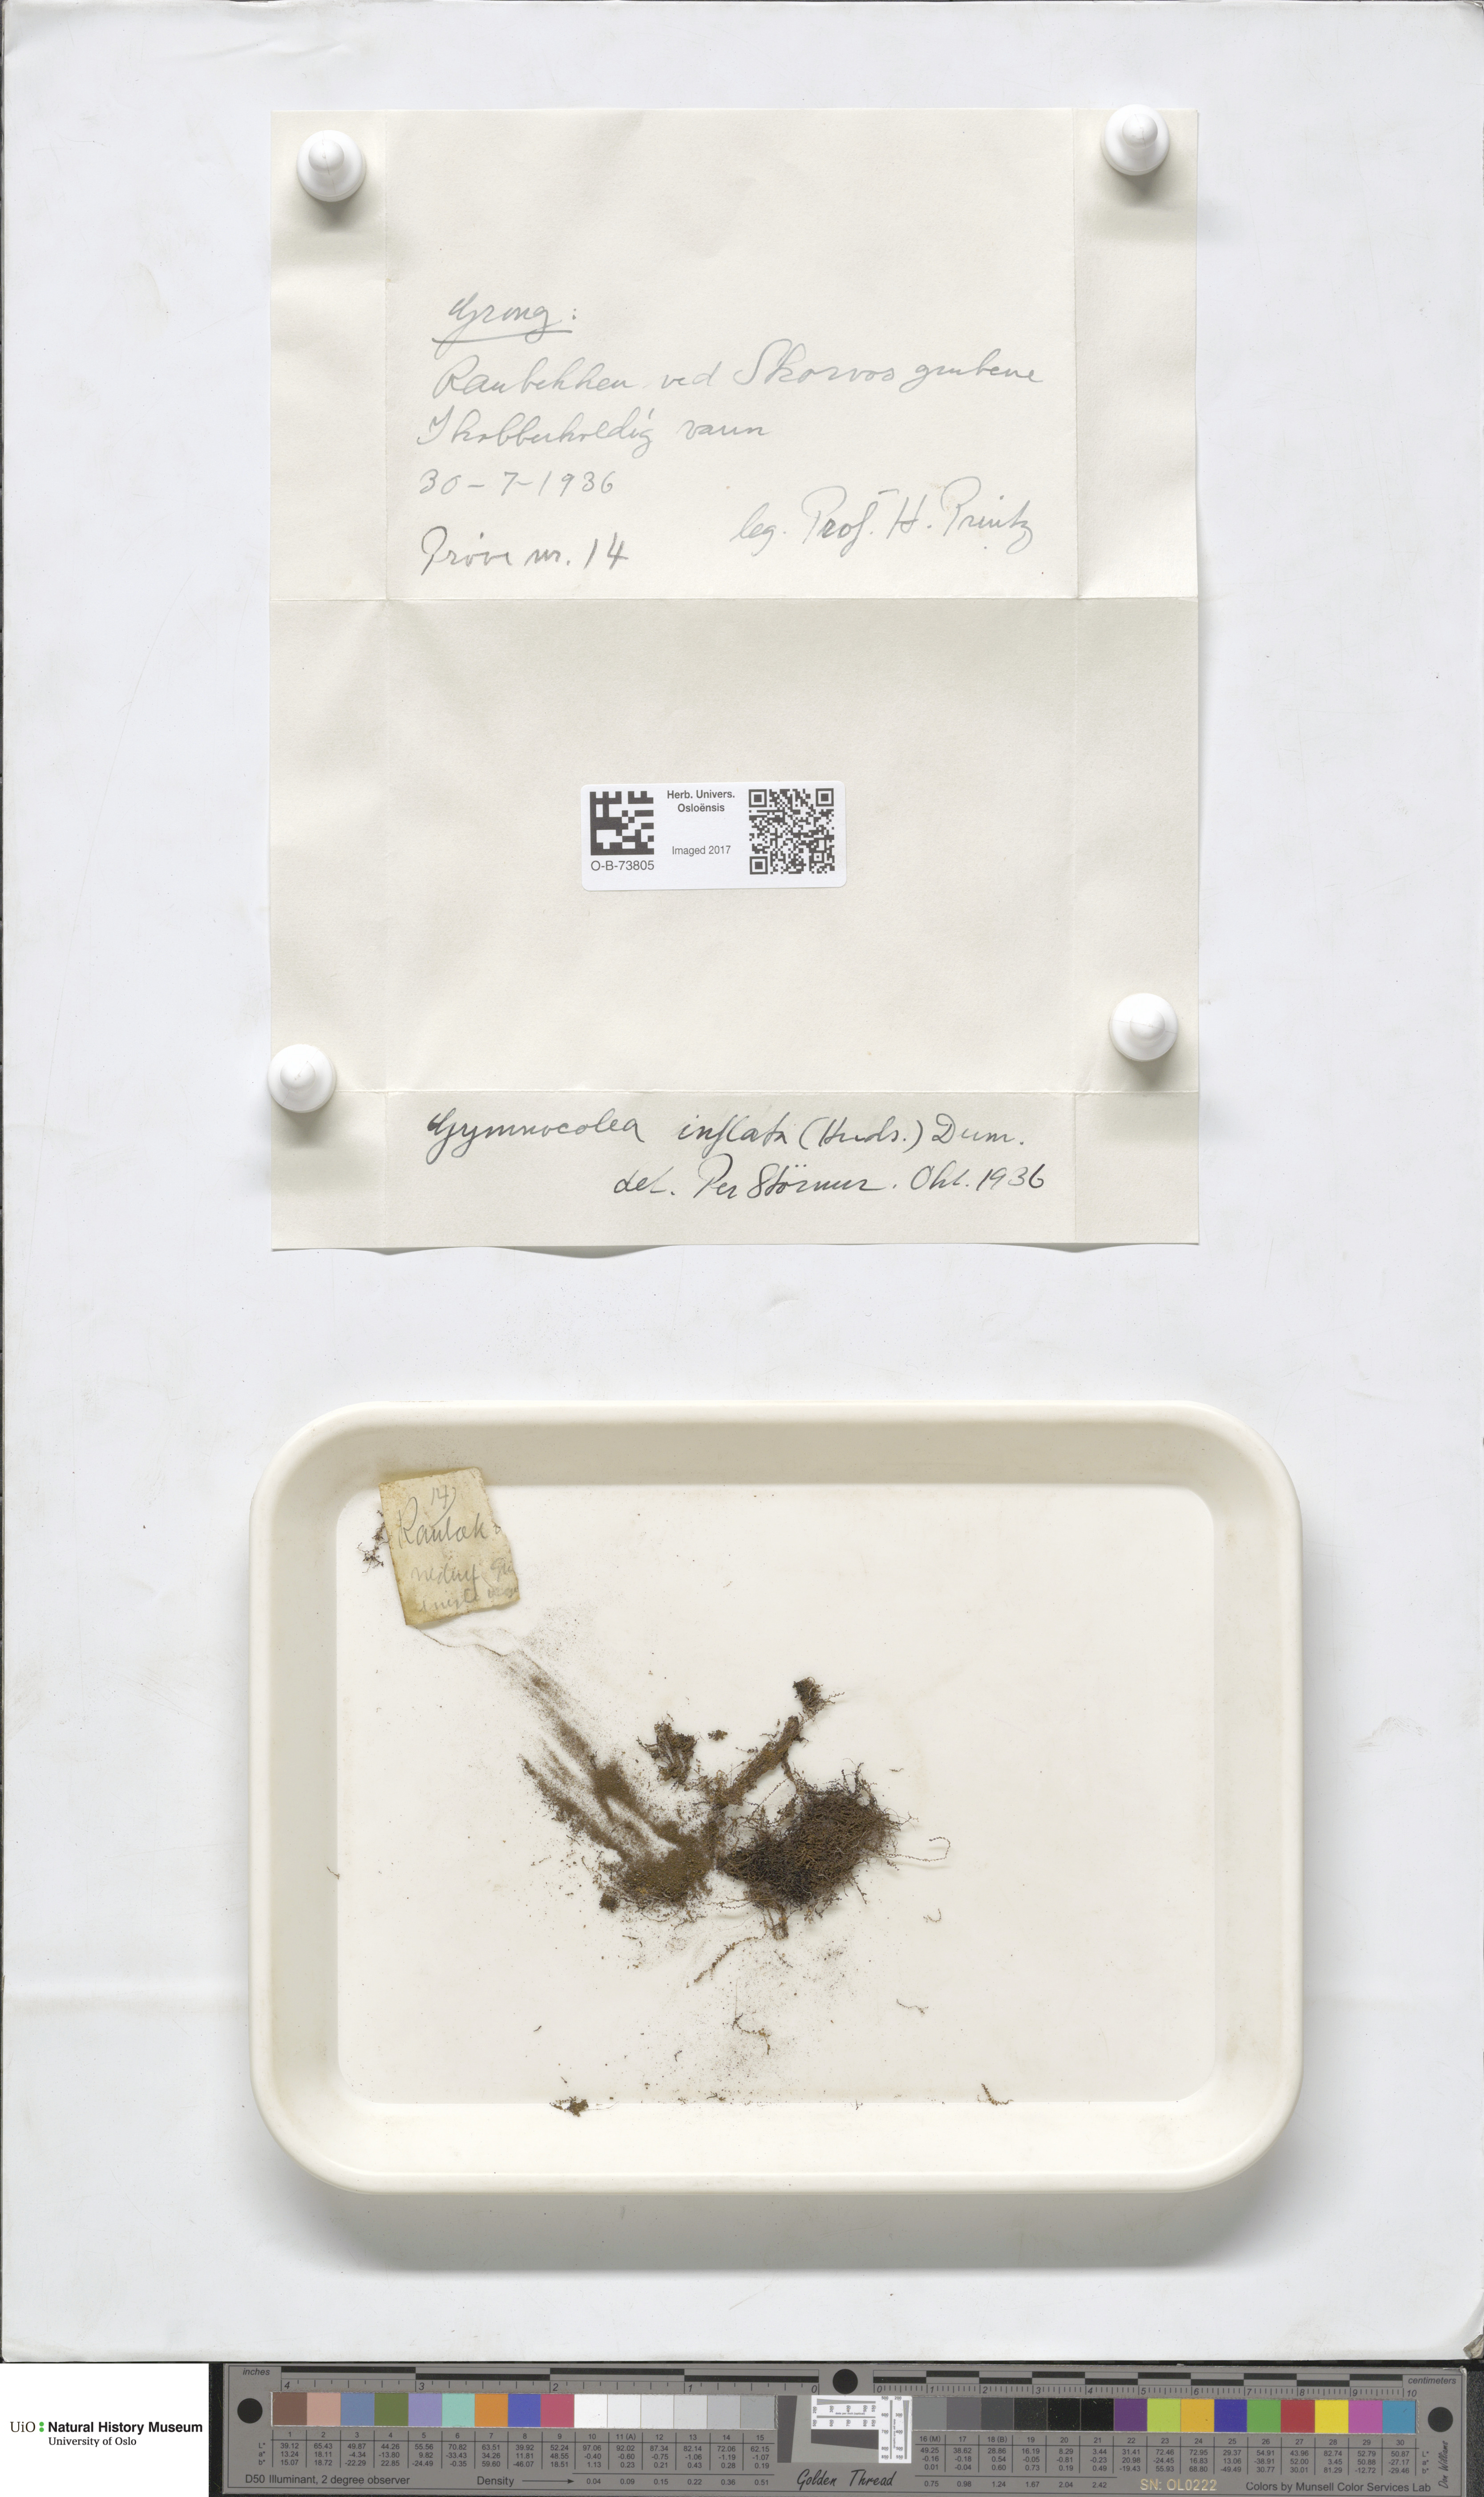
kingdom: Plantae
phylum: Marchantiophyta
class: Jungermanniopsida
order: Jungermanniales
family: Anastrophyllaceae
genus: Gymnocolea
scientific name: Gymnocolea inflata
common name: Inflated notchwort
